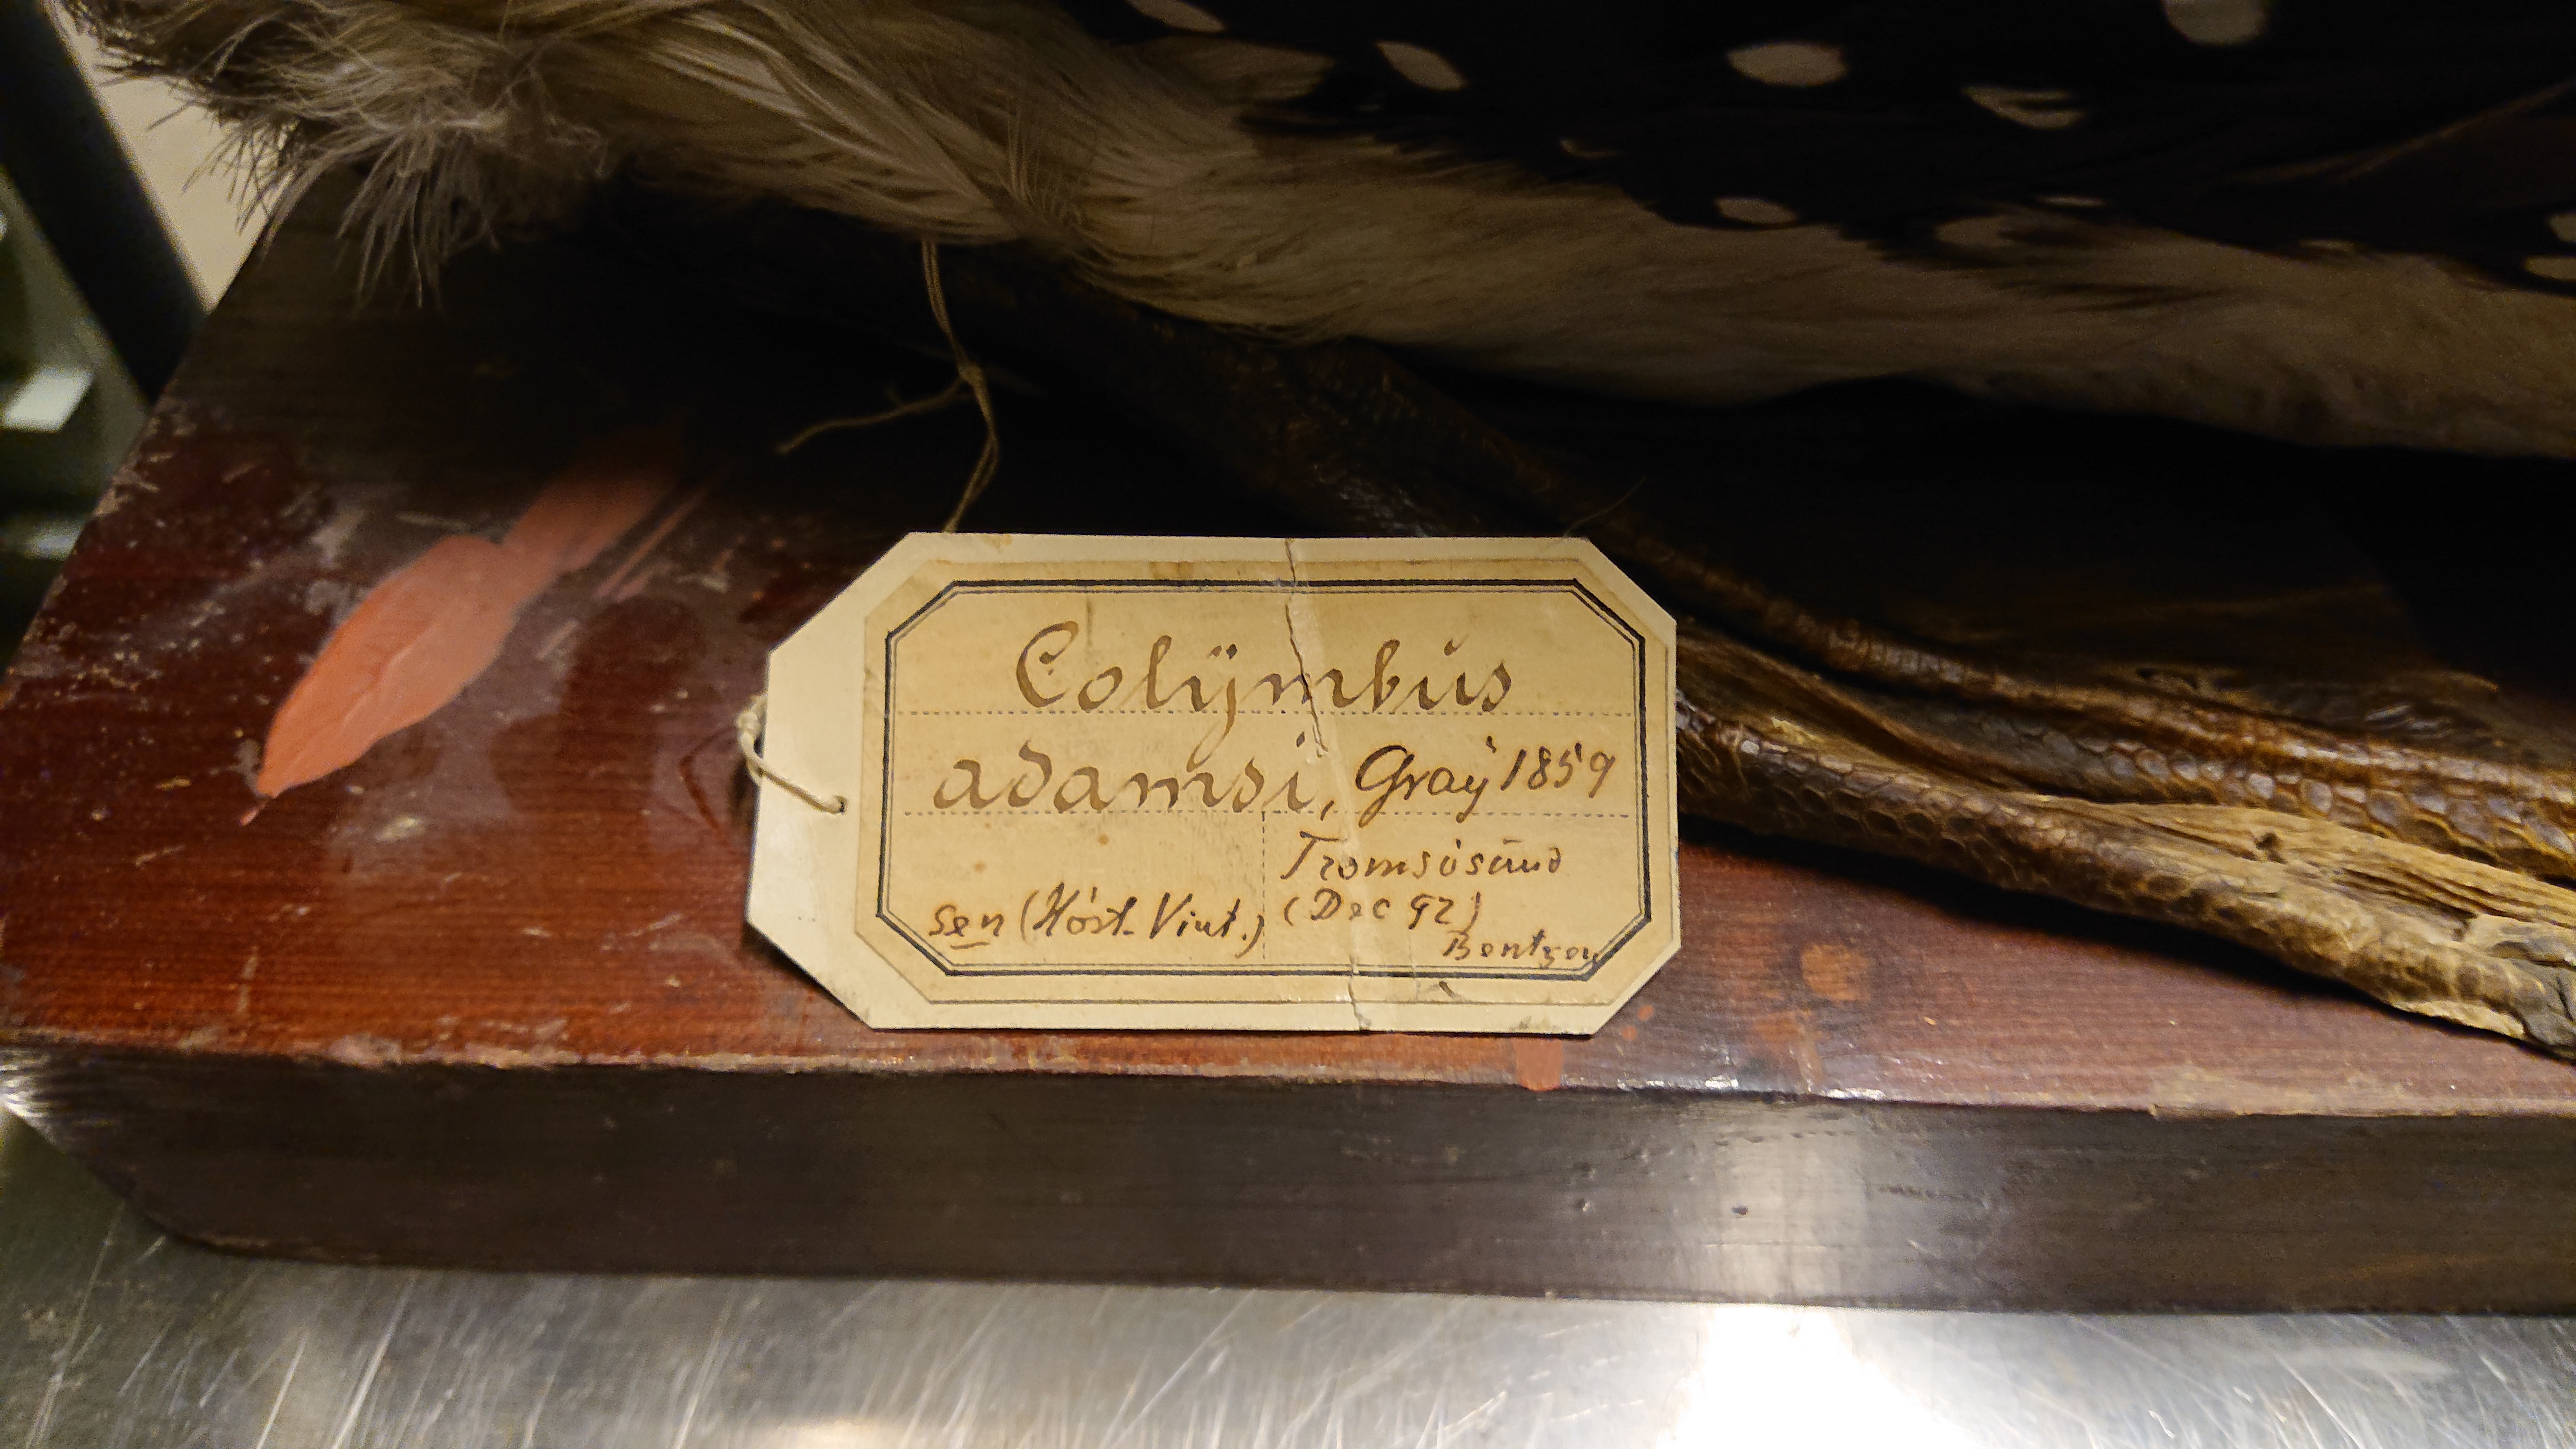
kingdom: Animalia
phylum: Chordata
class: Aves
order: Gaviiformes
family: Gaviidae
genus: Gavia
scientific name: Gavia adamsii
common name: Yellow-billed loon
